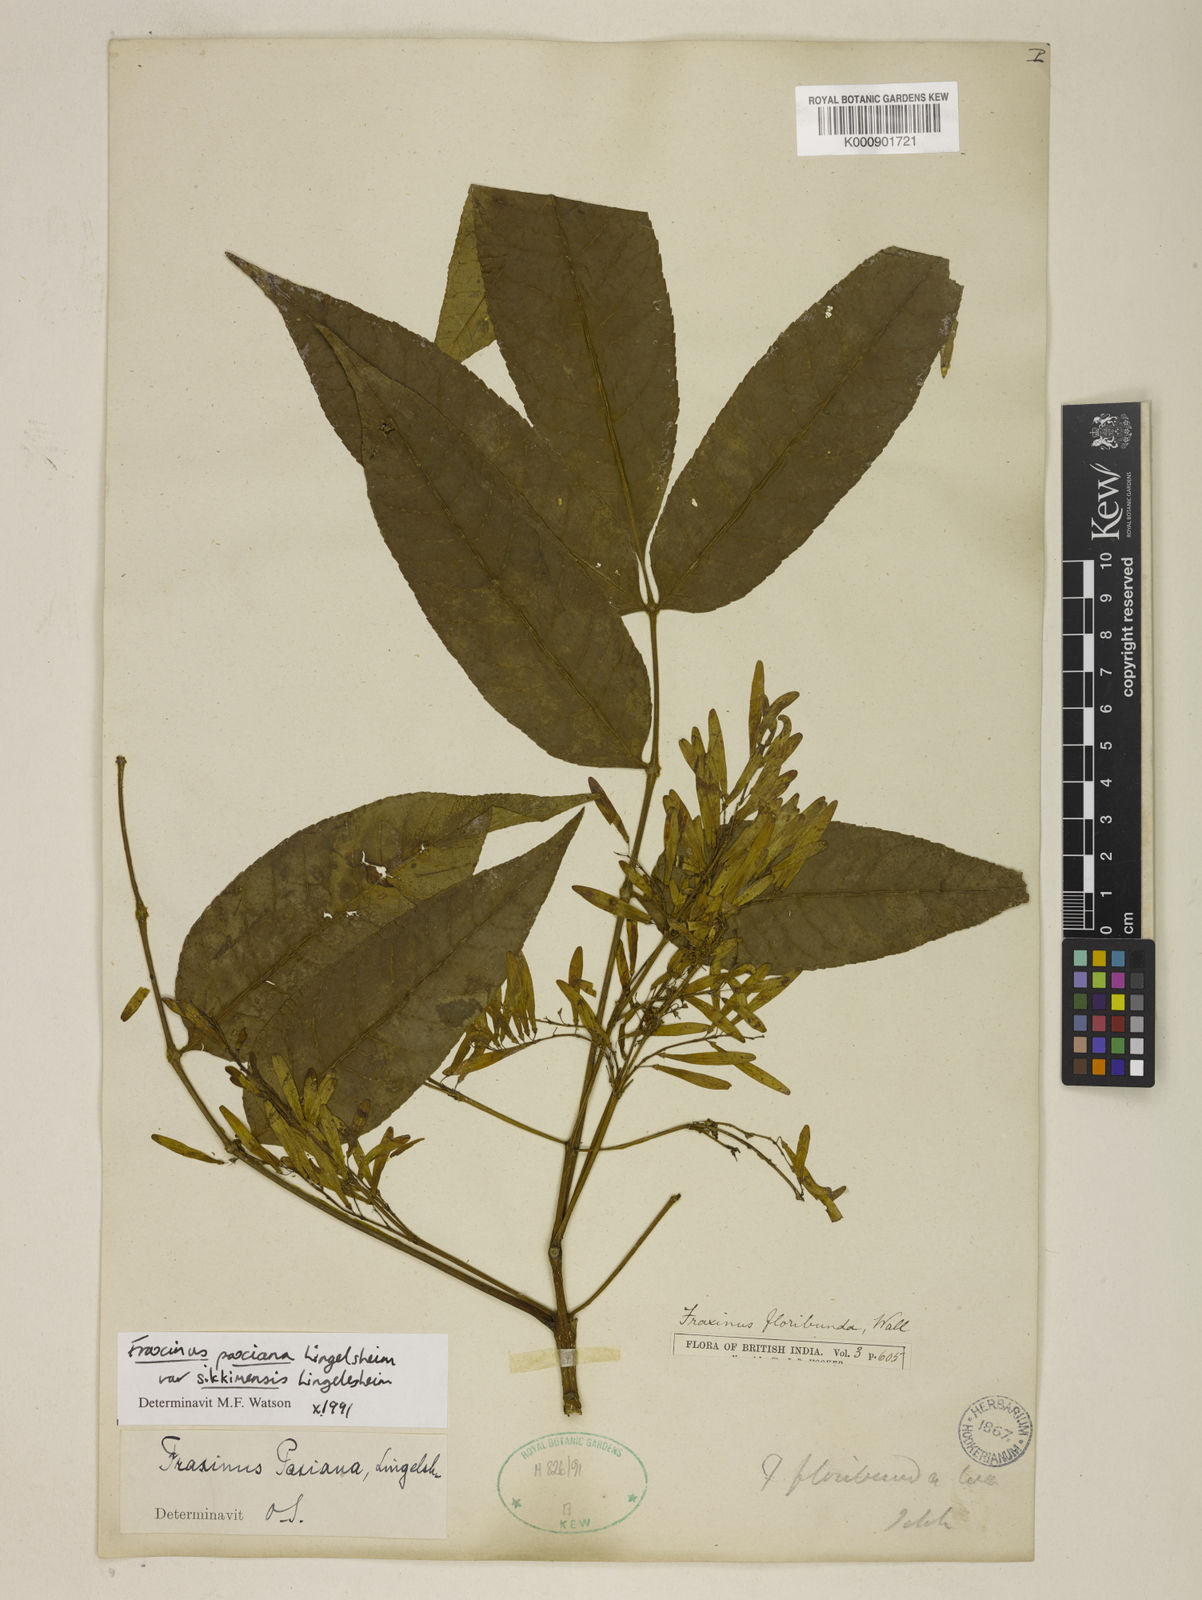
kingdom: Plantae
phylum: Tracheophyta
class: Magnoliopsida
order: Lamiales
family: Oleaceae
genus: Fraxinus
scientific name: Fraxinus paxiana
